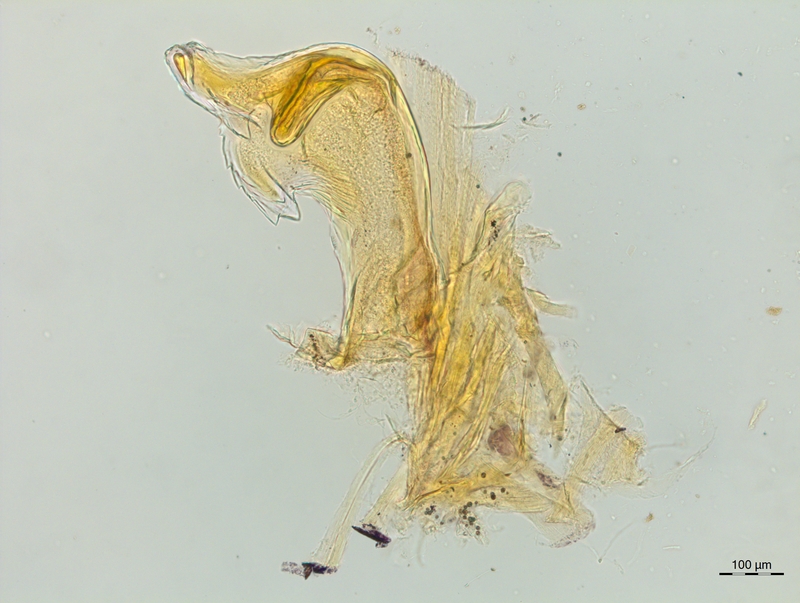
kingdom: Animalia
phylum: Arthropoda
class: Diplopoda
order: Chordeumatida
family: Craspedosomatidae
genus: Craspedosoma
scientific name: Craspedosoma rawlinsii
